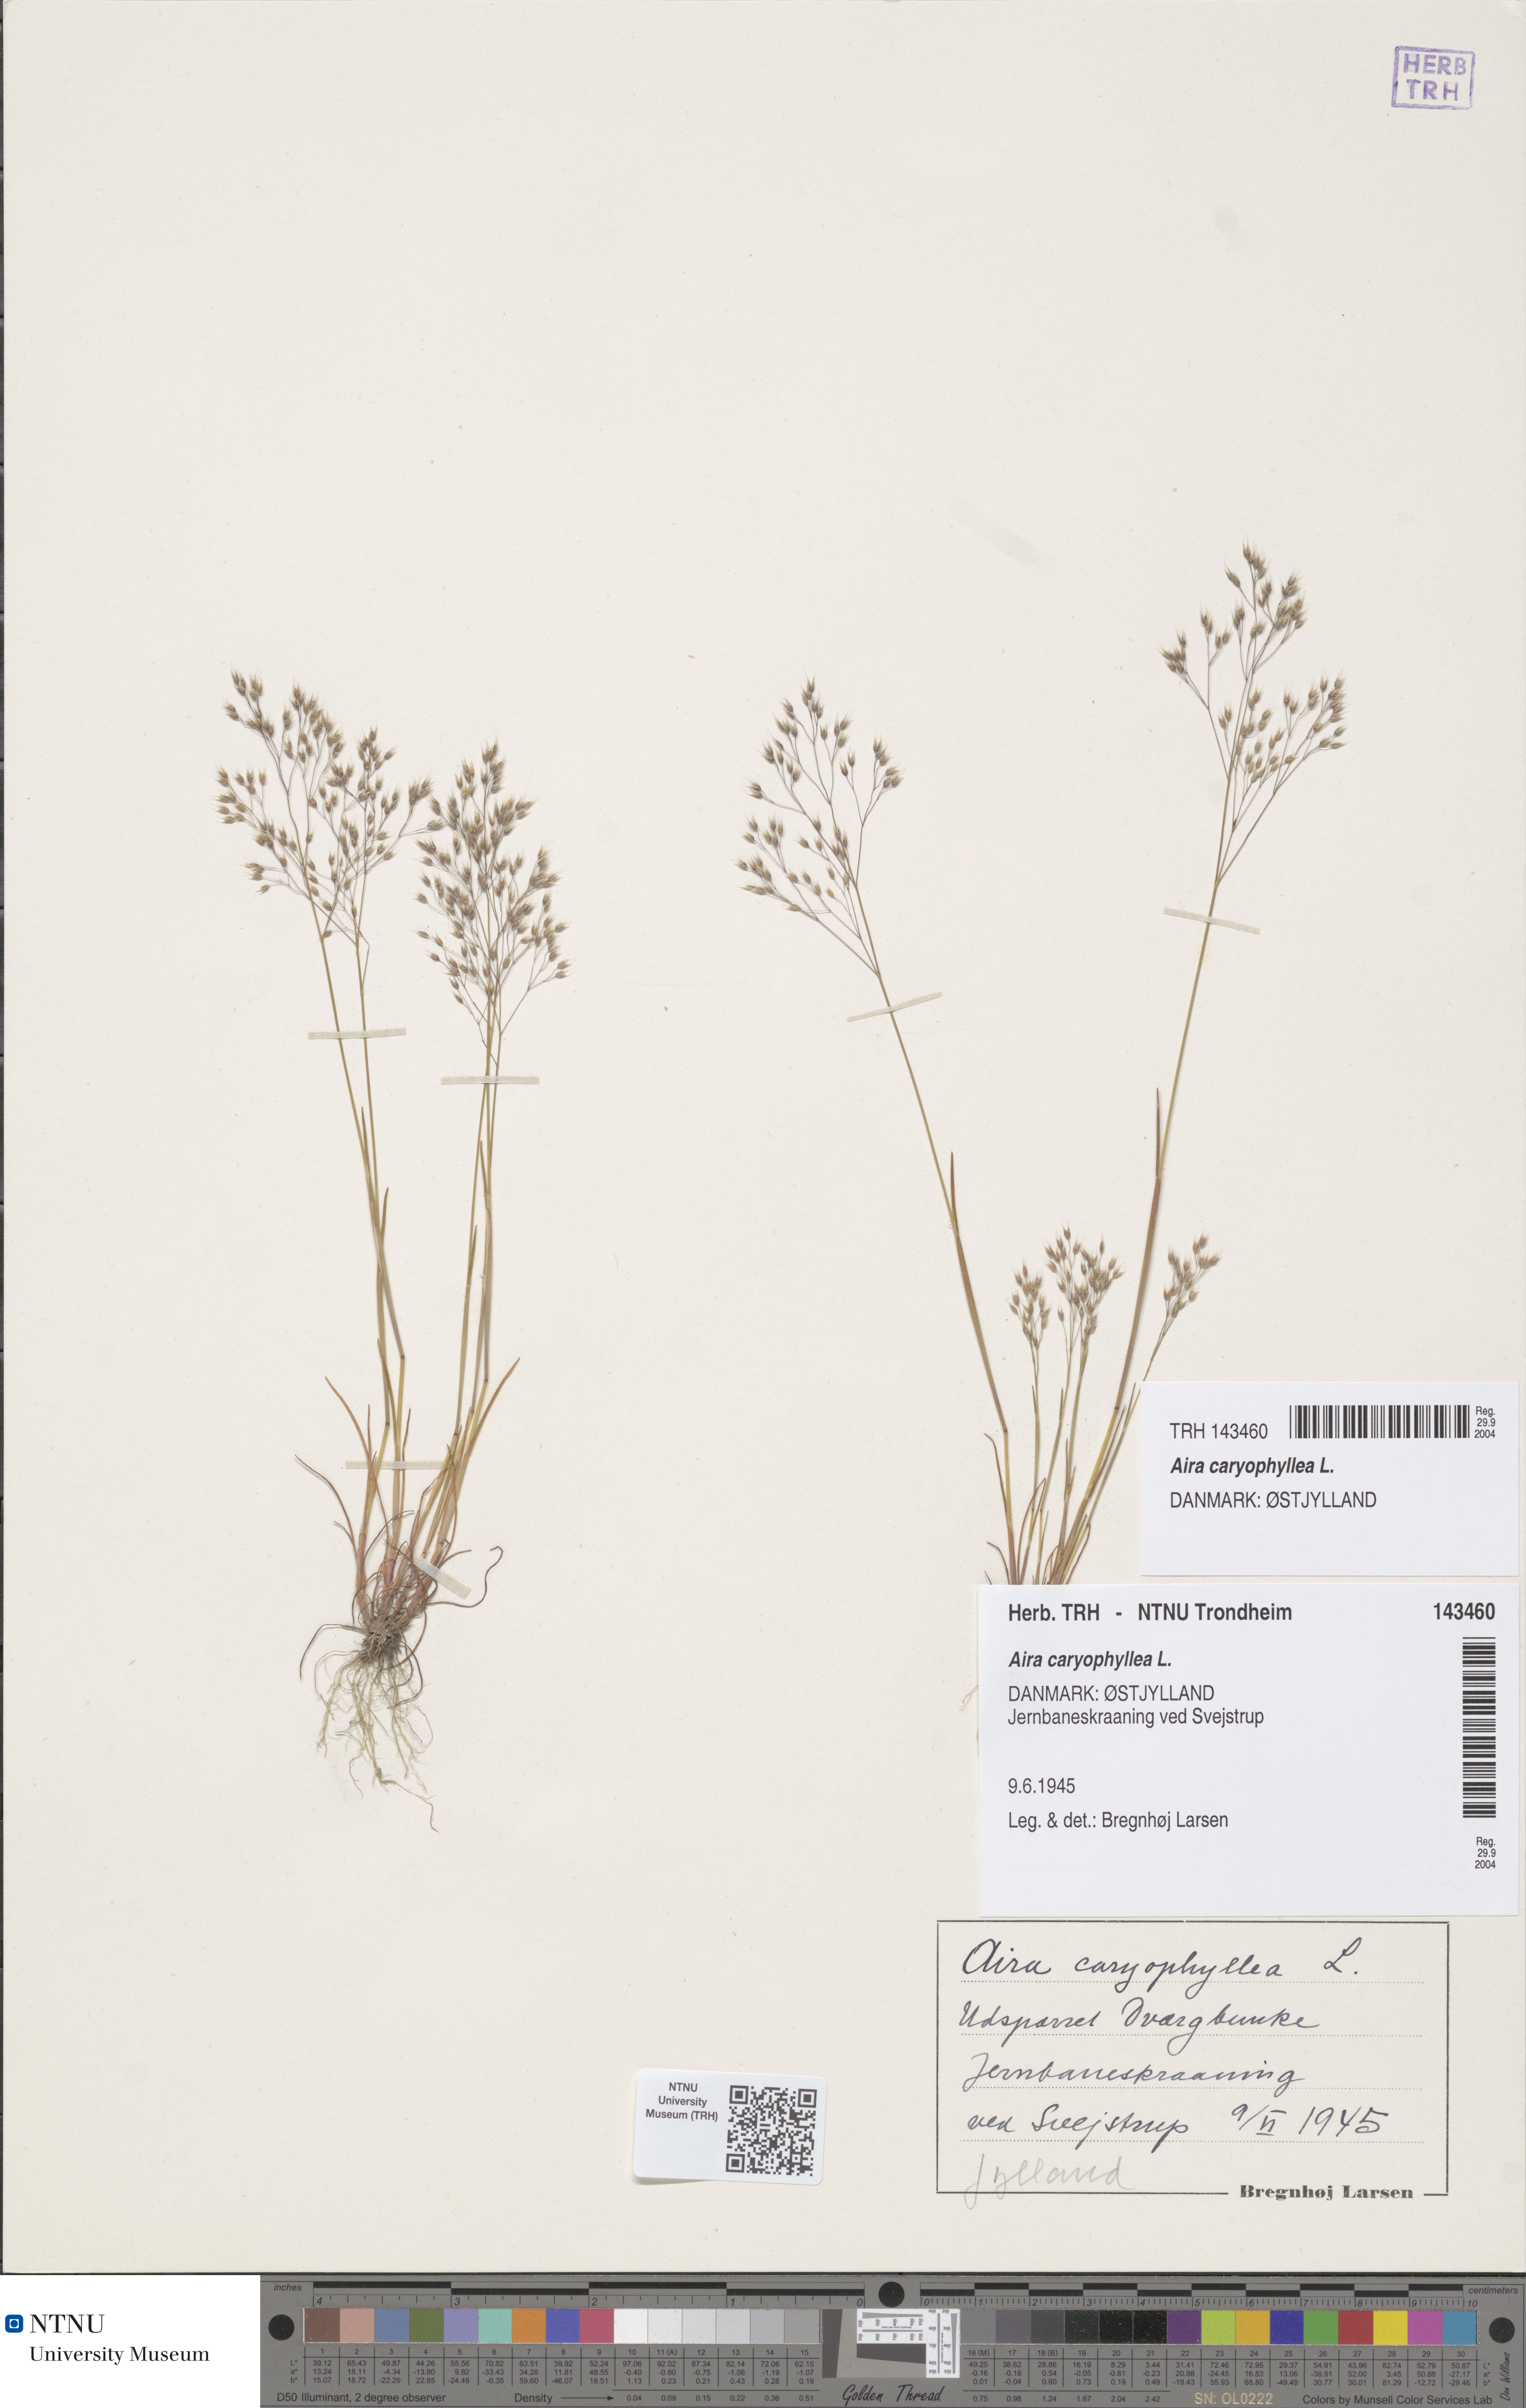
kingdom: Plantae
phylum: Tracheophyta
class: Liliopsida
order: Poales
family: Poaceae
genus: Aira
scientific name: Aira caryophyllea
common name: Silver hairgrass
